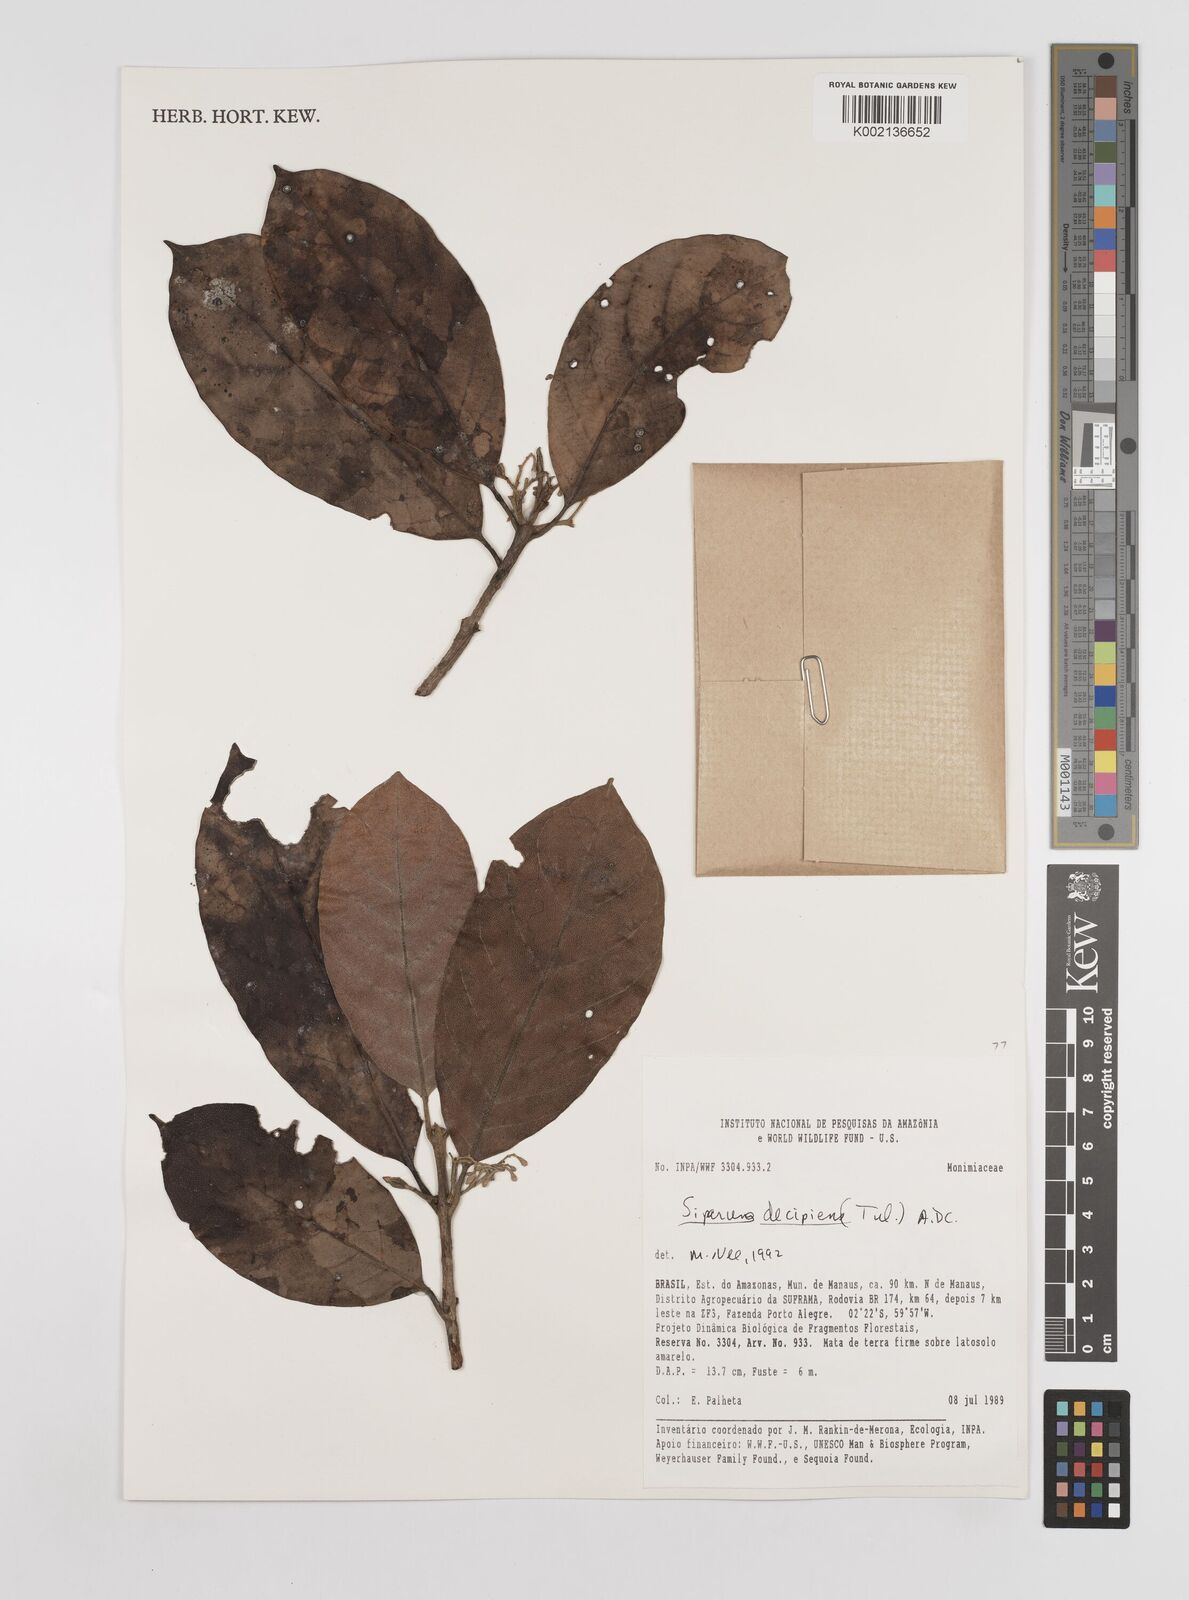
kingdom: Plantae
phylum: Tracheophyta
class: Magnoliopsida
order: Laurales
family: Siparunaceae
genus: Siparuna
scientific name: Siparuna decipiens
